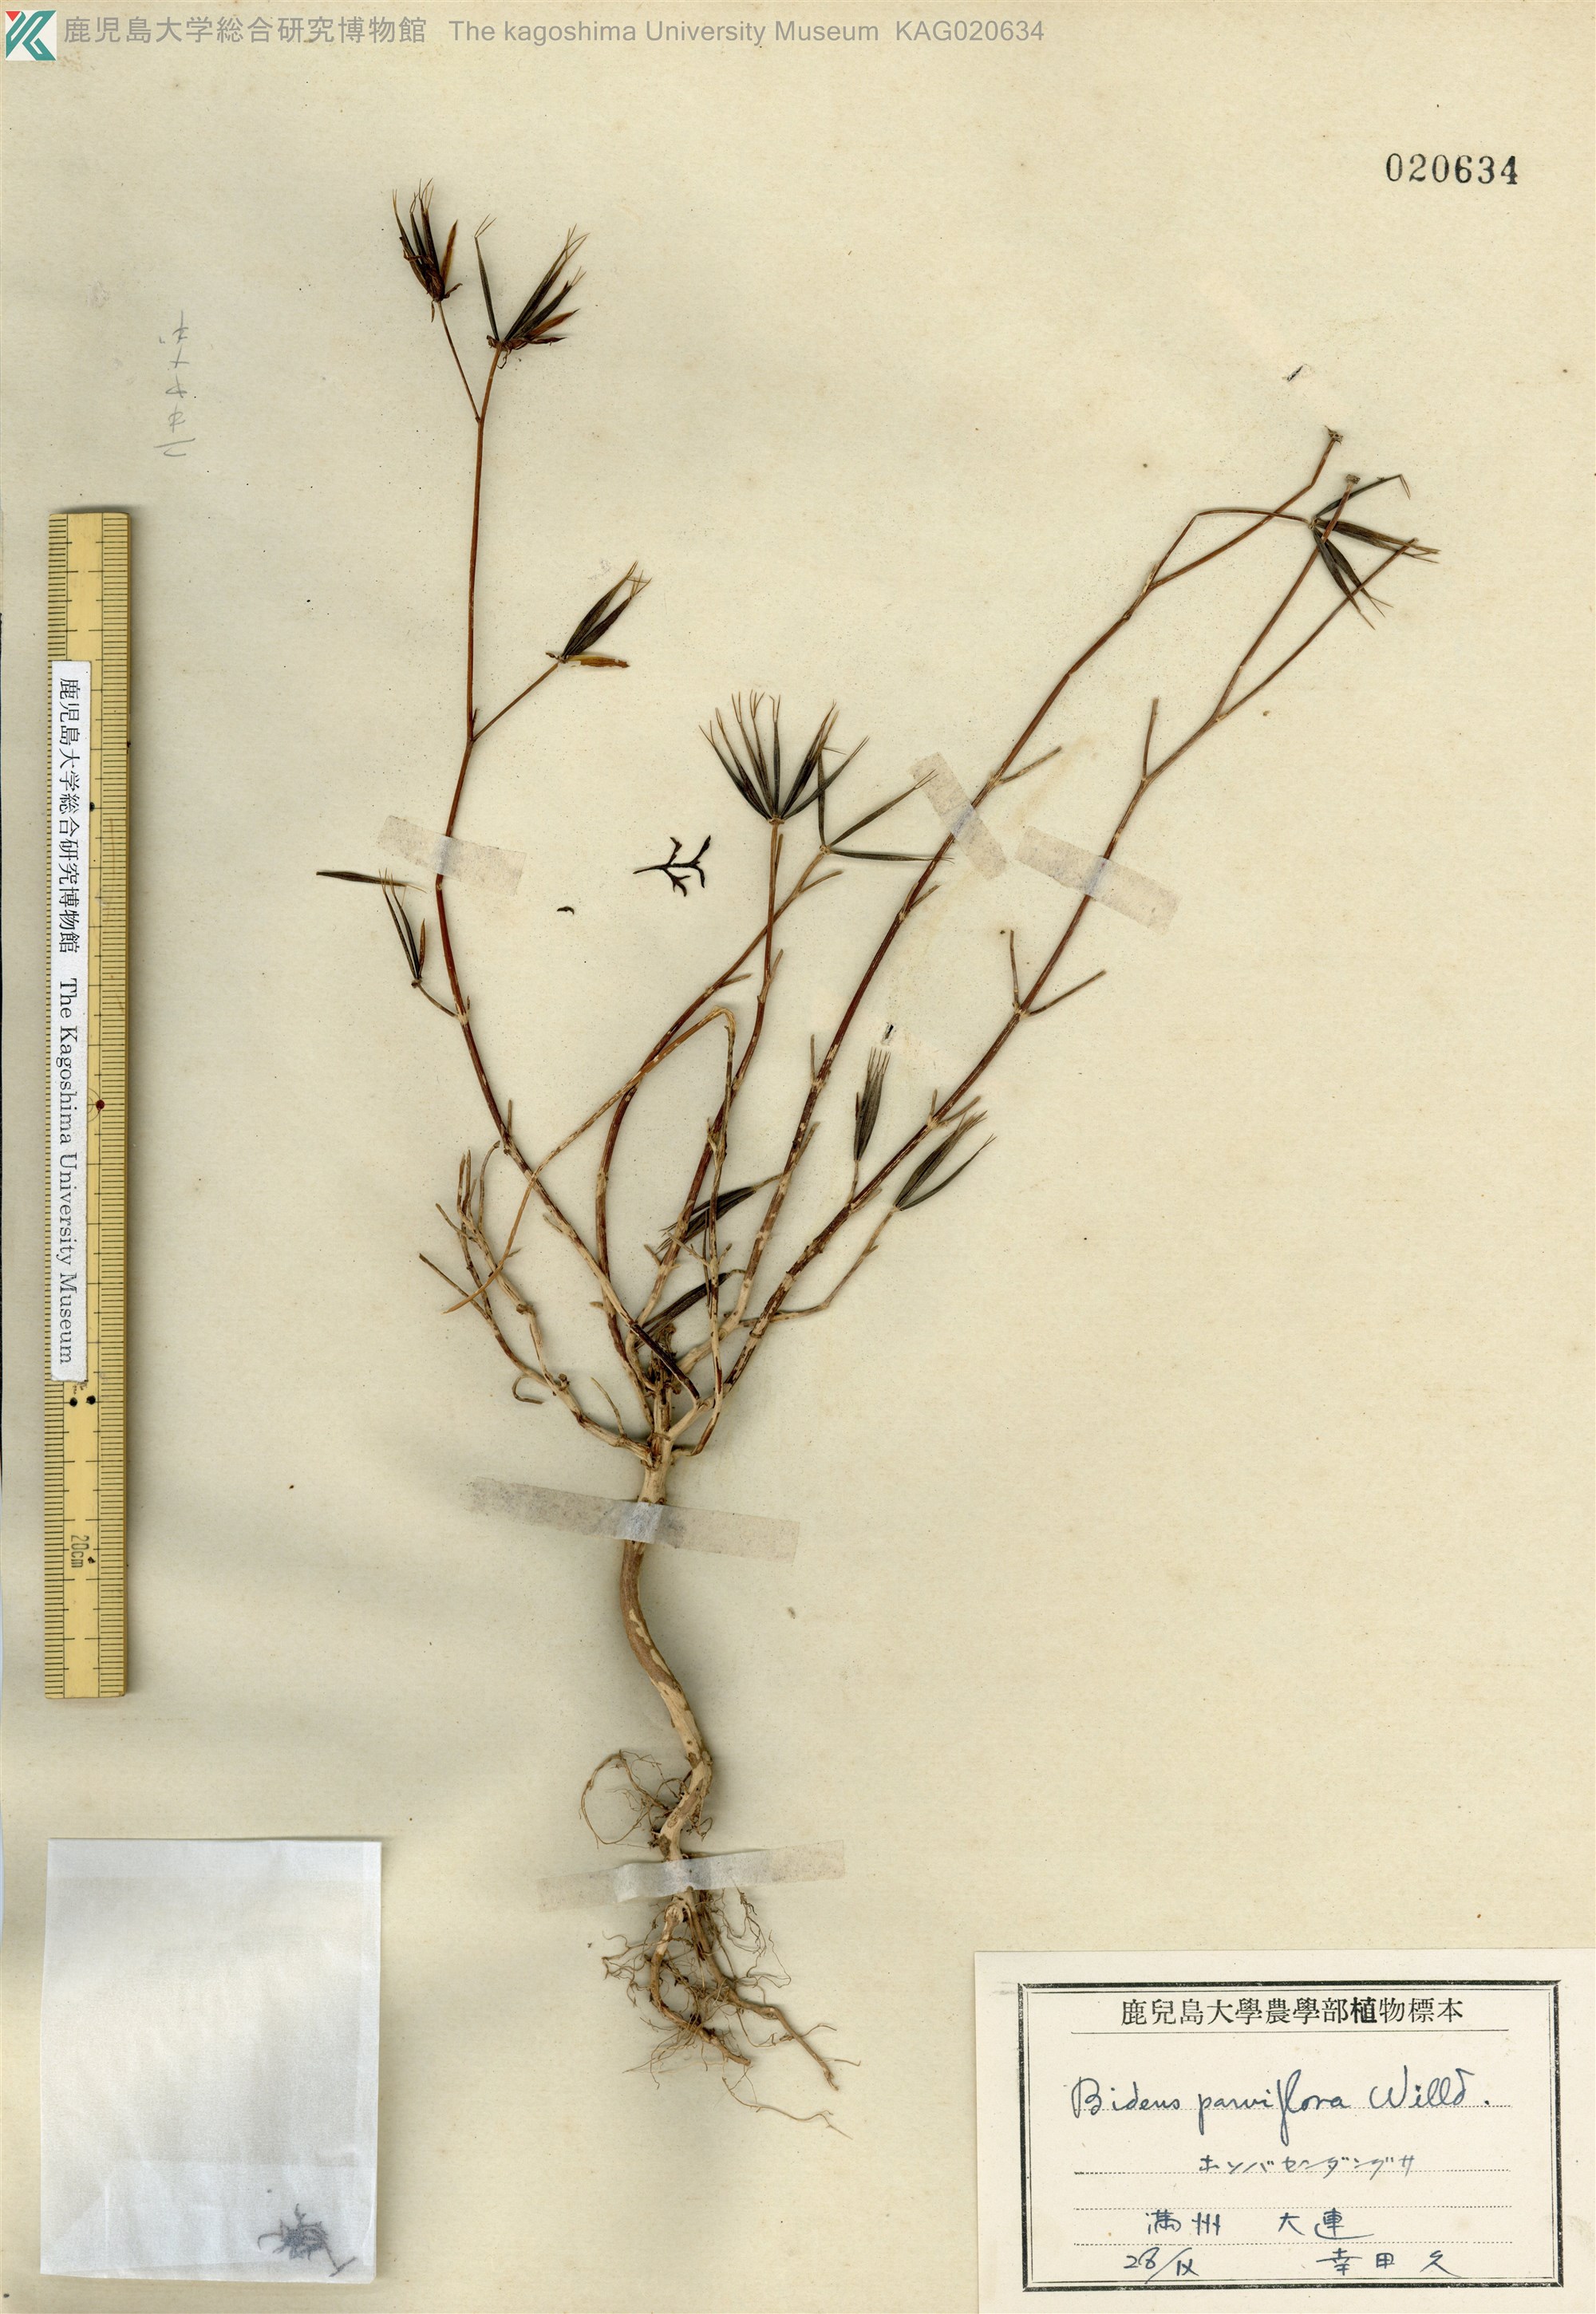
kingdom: Plantae
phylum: Tracheophyta
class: Magnoliopsida
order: Asterales
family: Asteraceae
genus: Bidens
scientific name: Bidens parviflora
